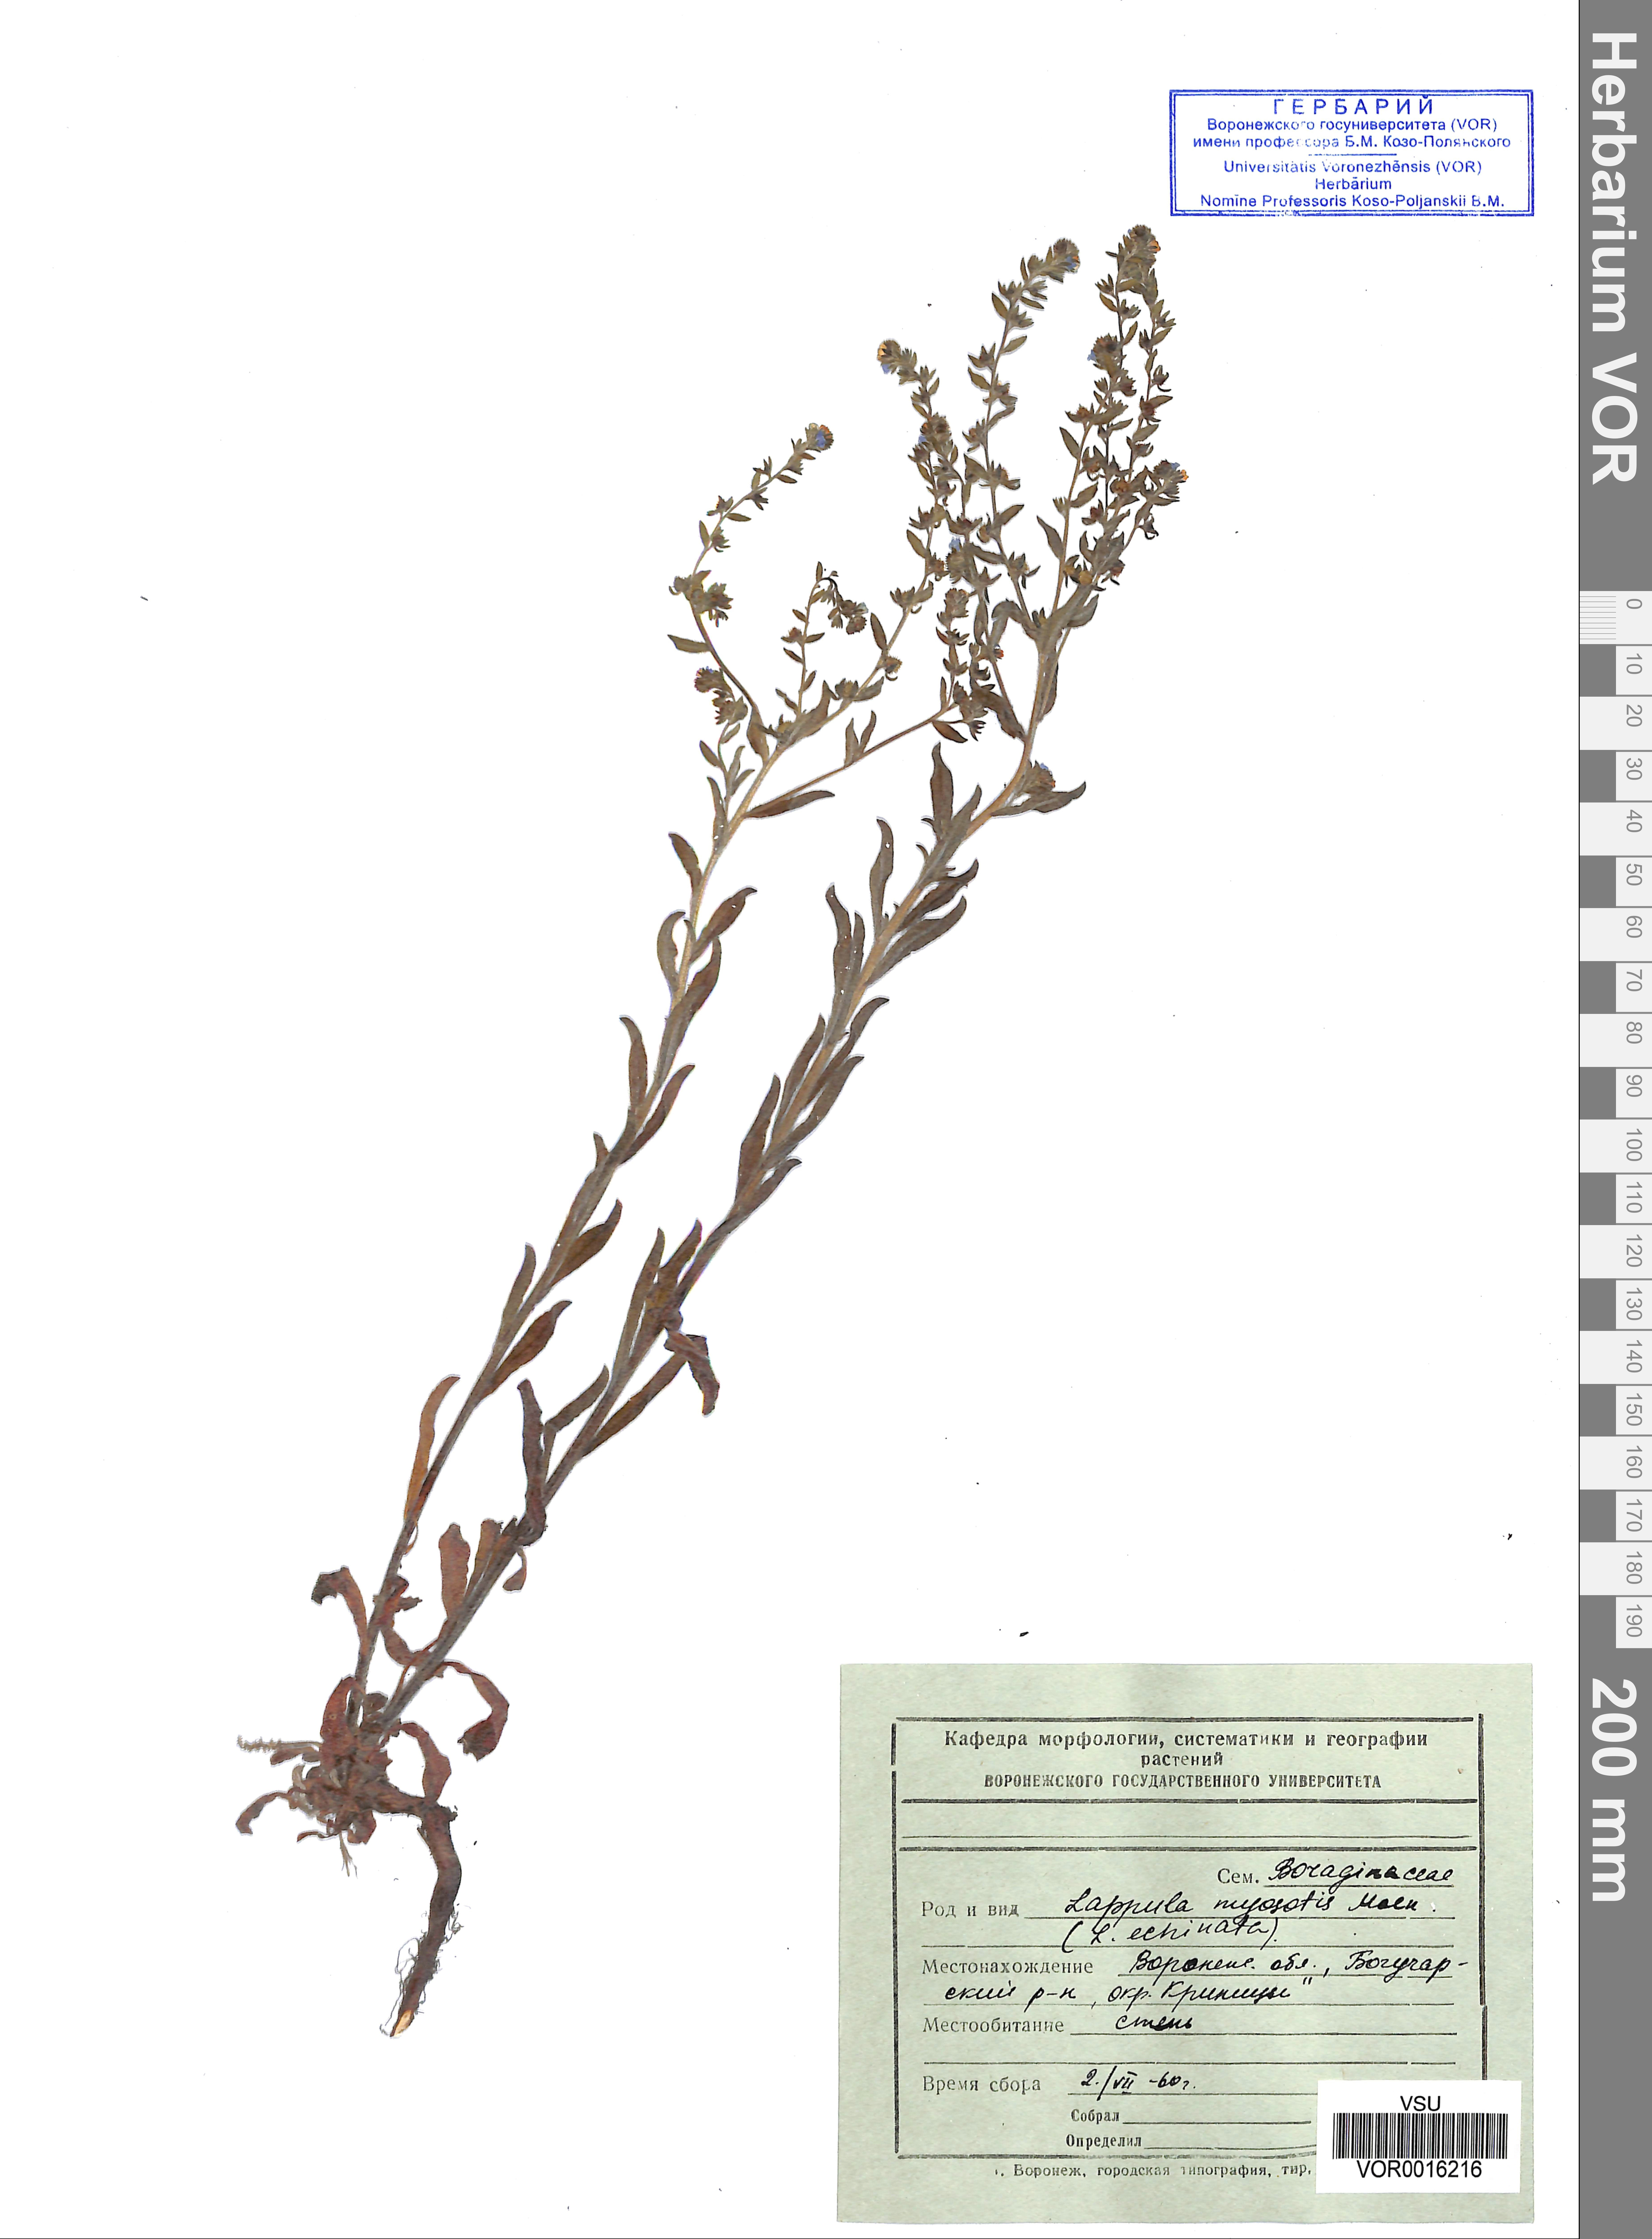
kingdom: Plantae
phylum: Tracheophyta
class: Magnoliopsida
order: Boraginales
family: Boraginaceae
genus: Lappula
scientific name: Lappula squarrosa
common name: European stickseed
